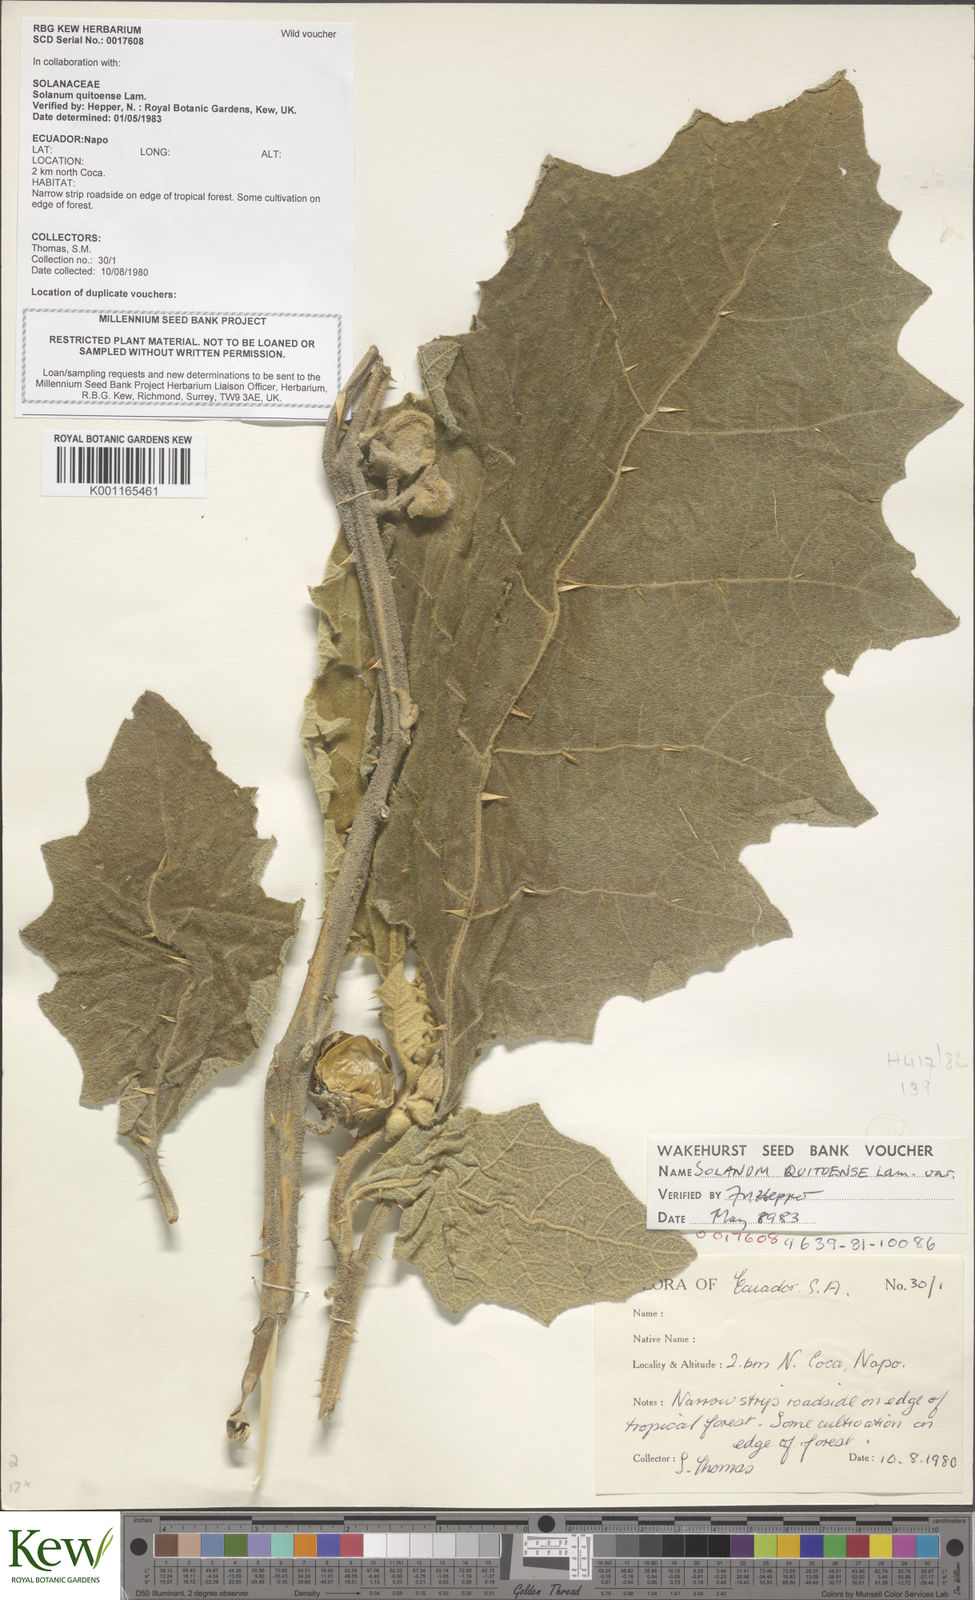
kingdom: Plantae
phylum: Tracheophyta
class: Magnoliopsida
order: Solanales
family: Solanaceae
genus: Solanum
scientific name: Solanum quitoense
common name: Quito-orange
